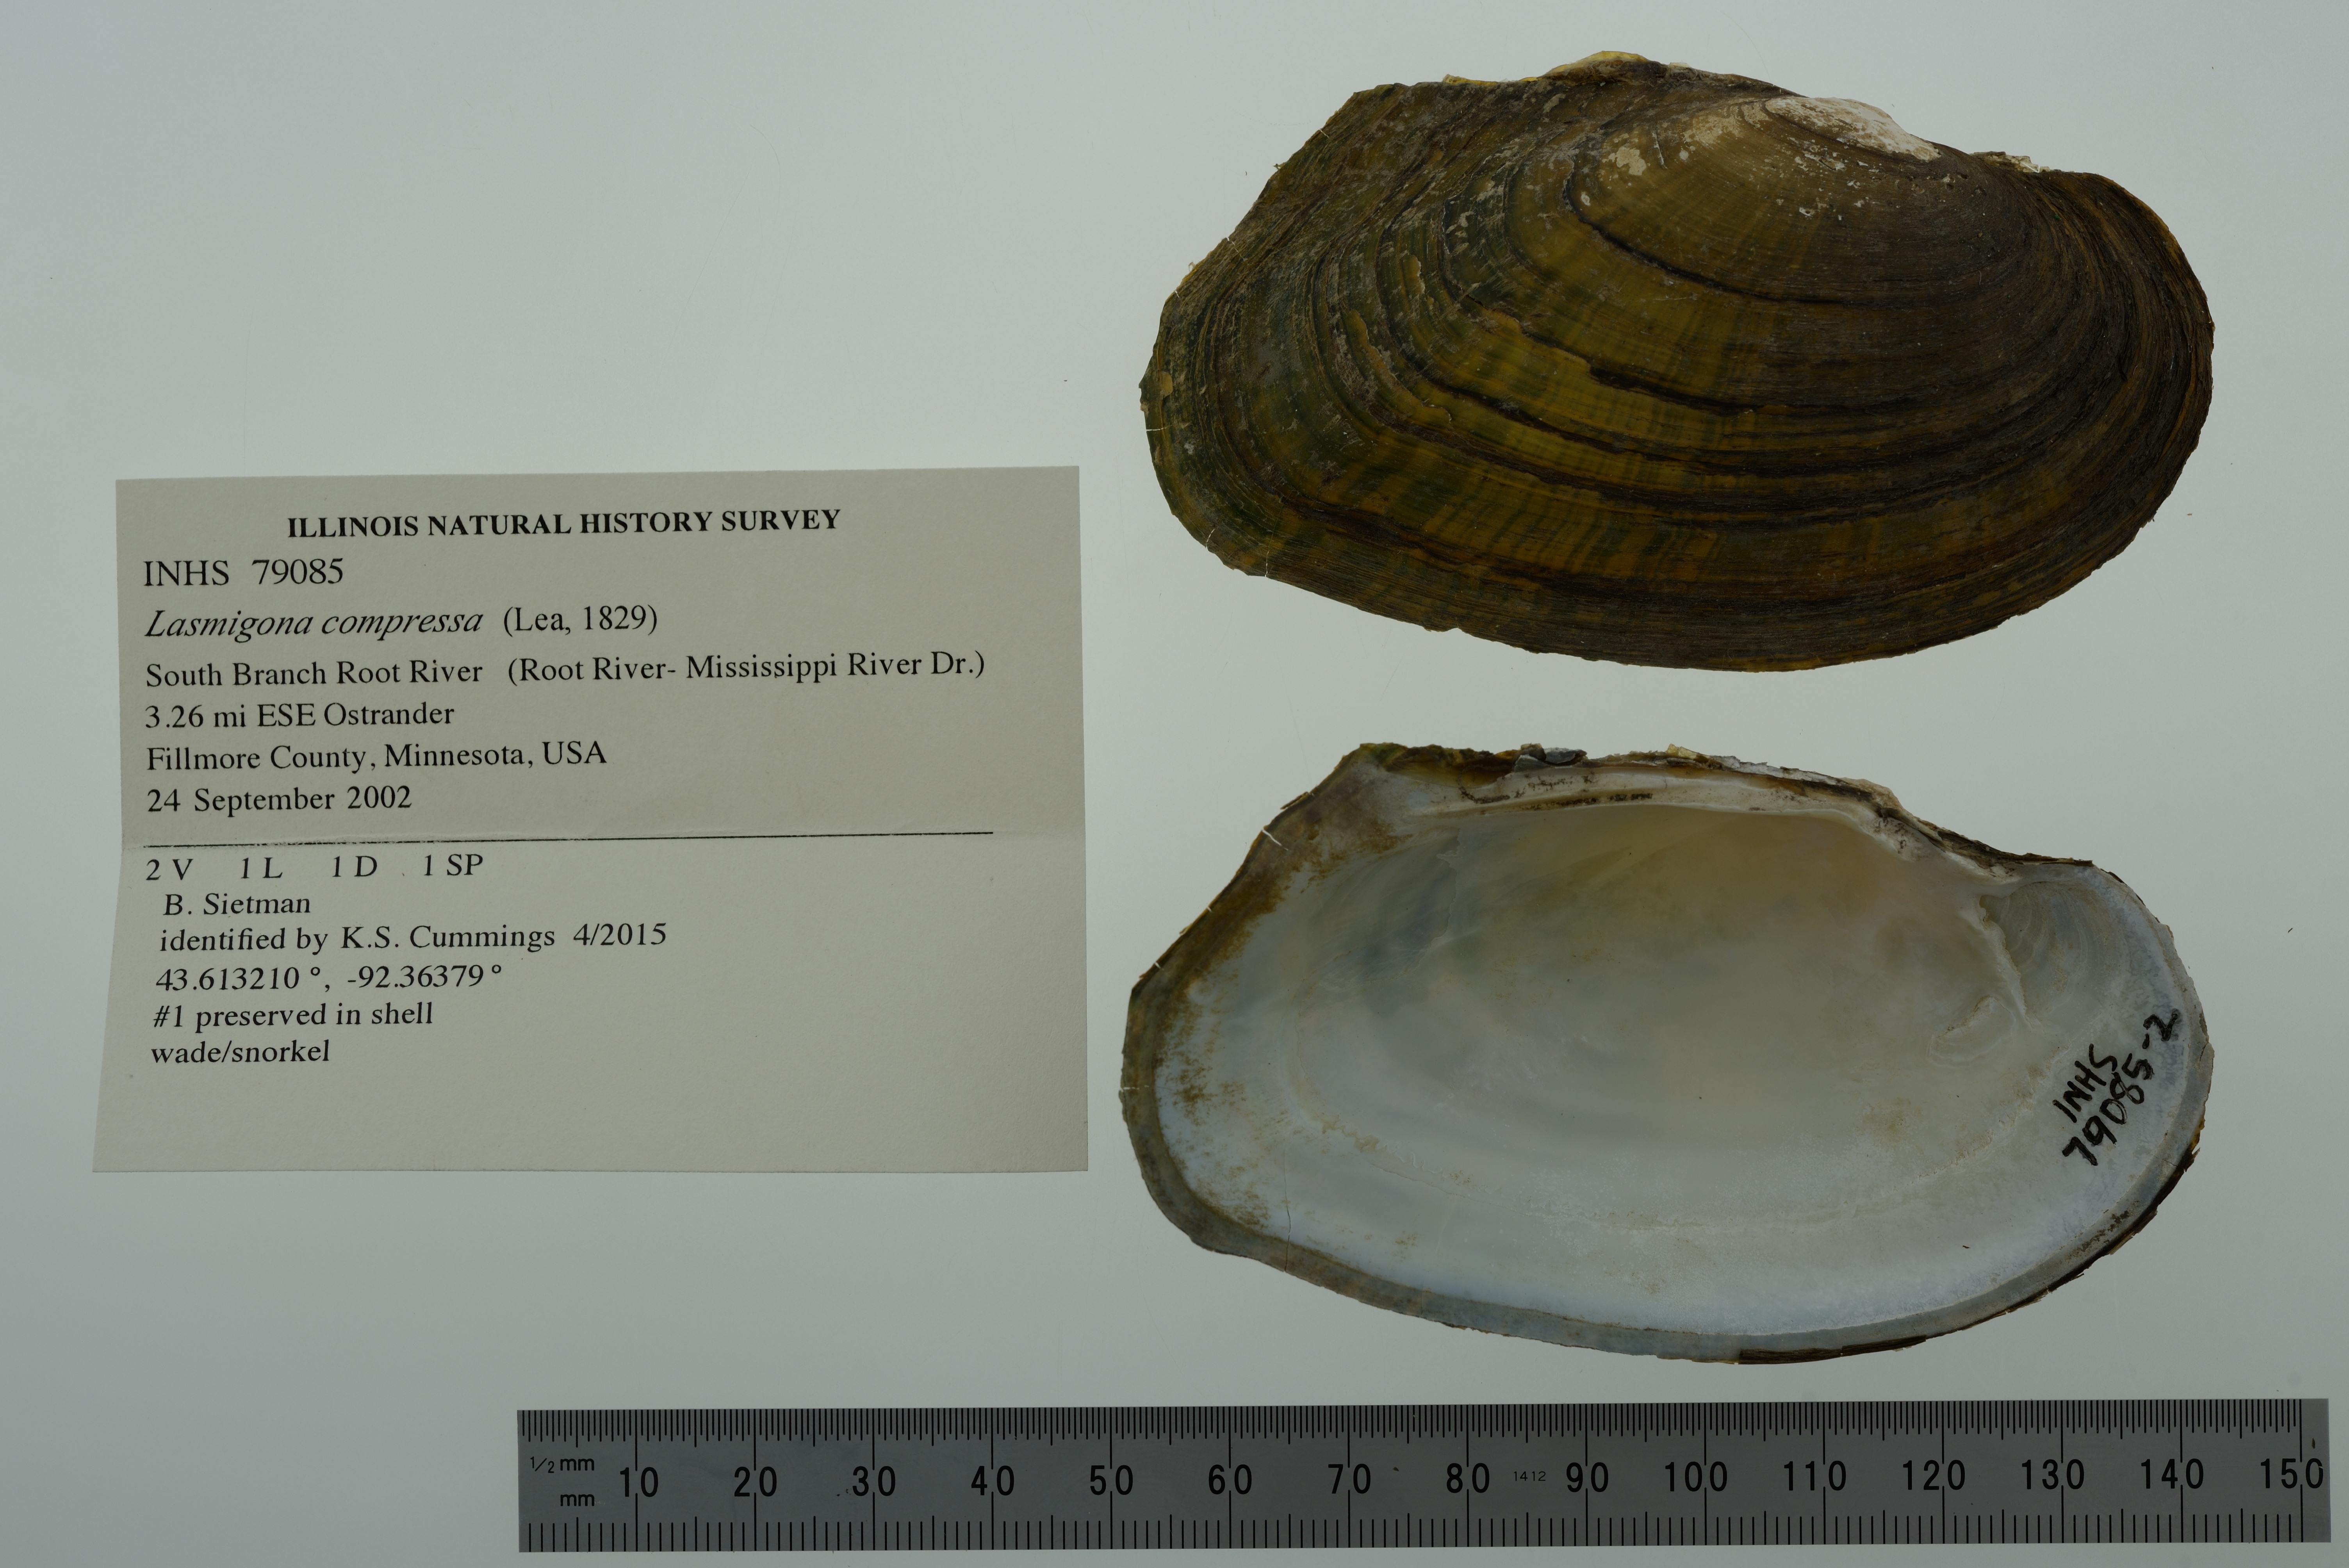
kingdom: Animalia
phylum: Mollusca
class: Bivalvia
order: Unionida
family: Unionidae
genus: Lasmigona
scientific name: Lasmigona compressa
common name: Creek heelsplitter
